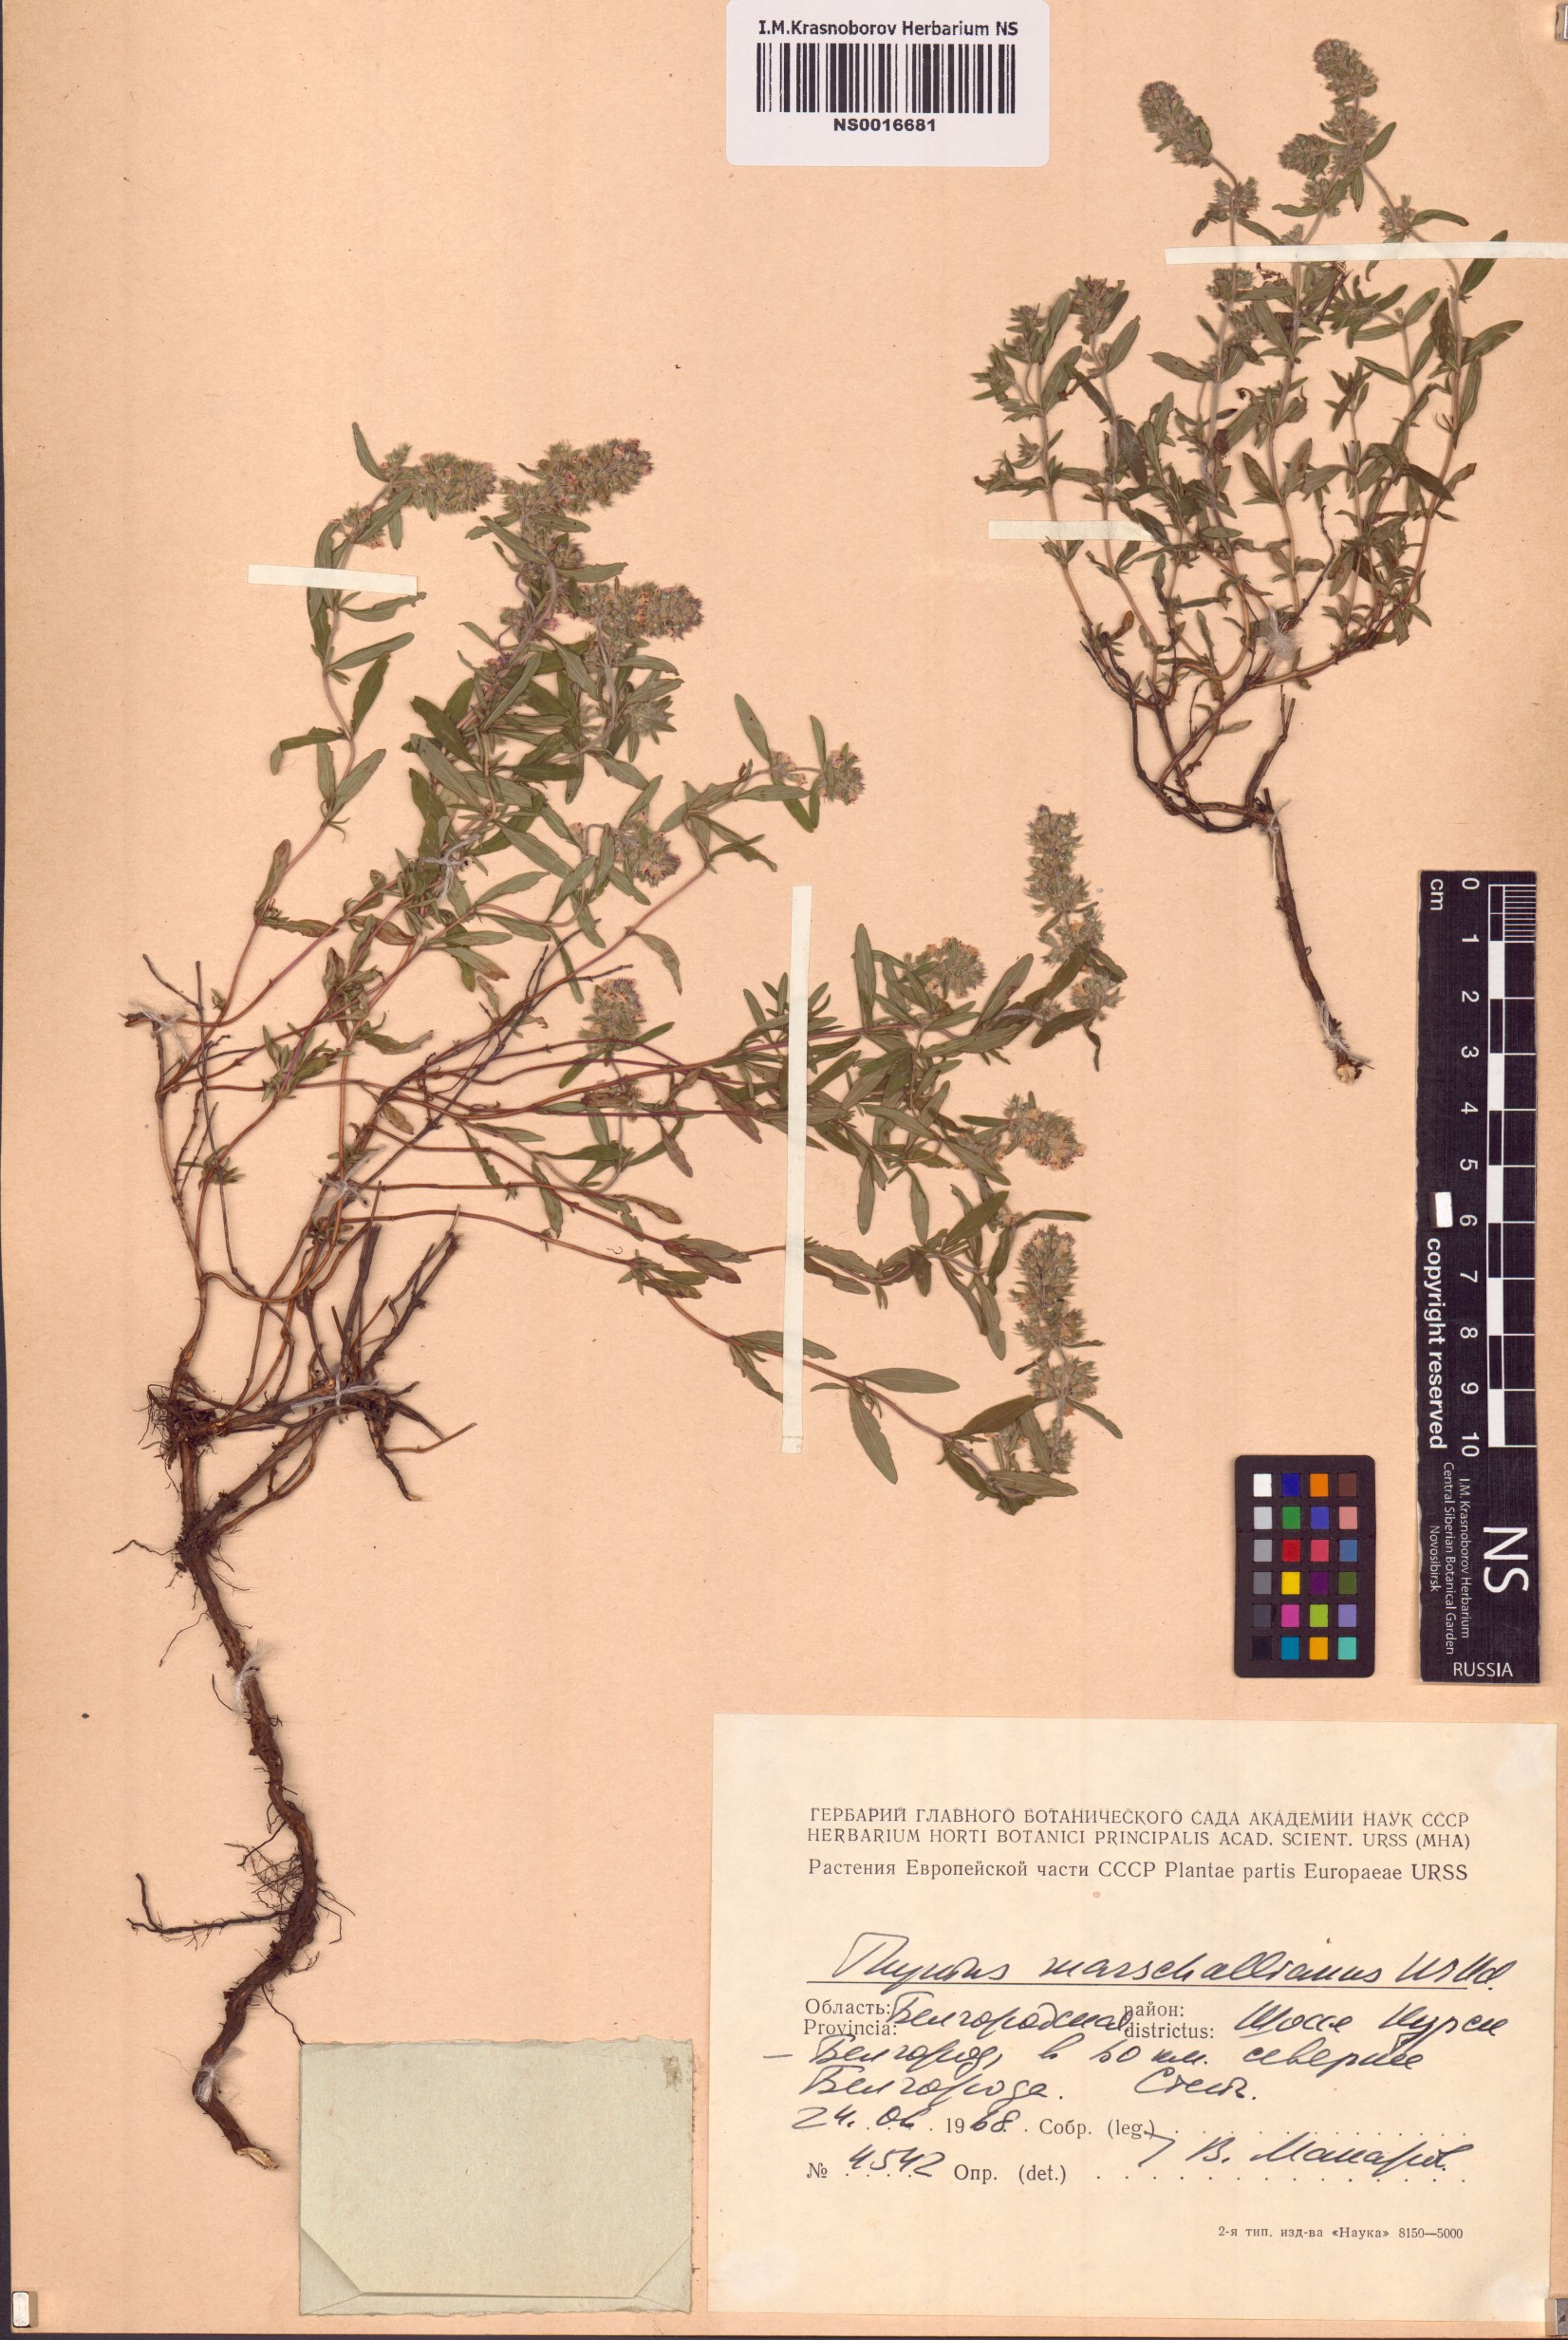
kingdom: Plantae
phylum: Tracheophyta
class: Magnoliopsida
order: Lamiales
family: Lamiaceae
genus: Thymus
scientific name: Thymus pannonicus
